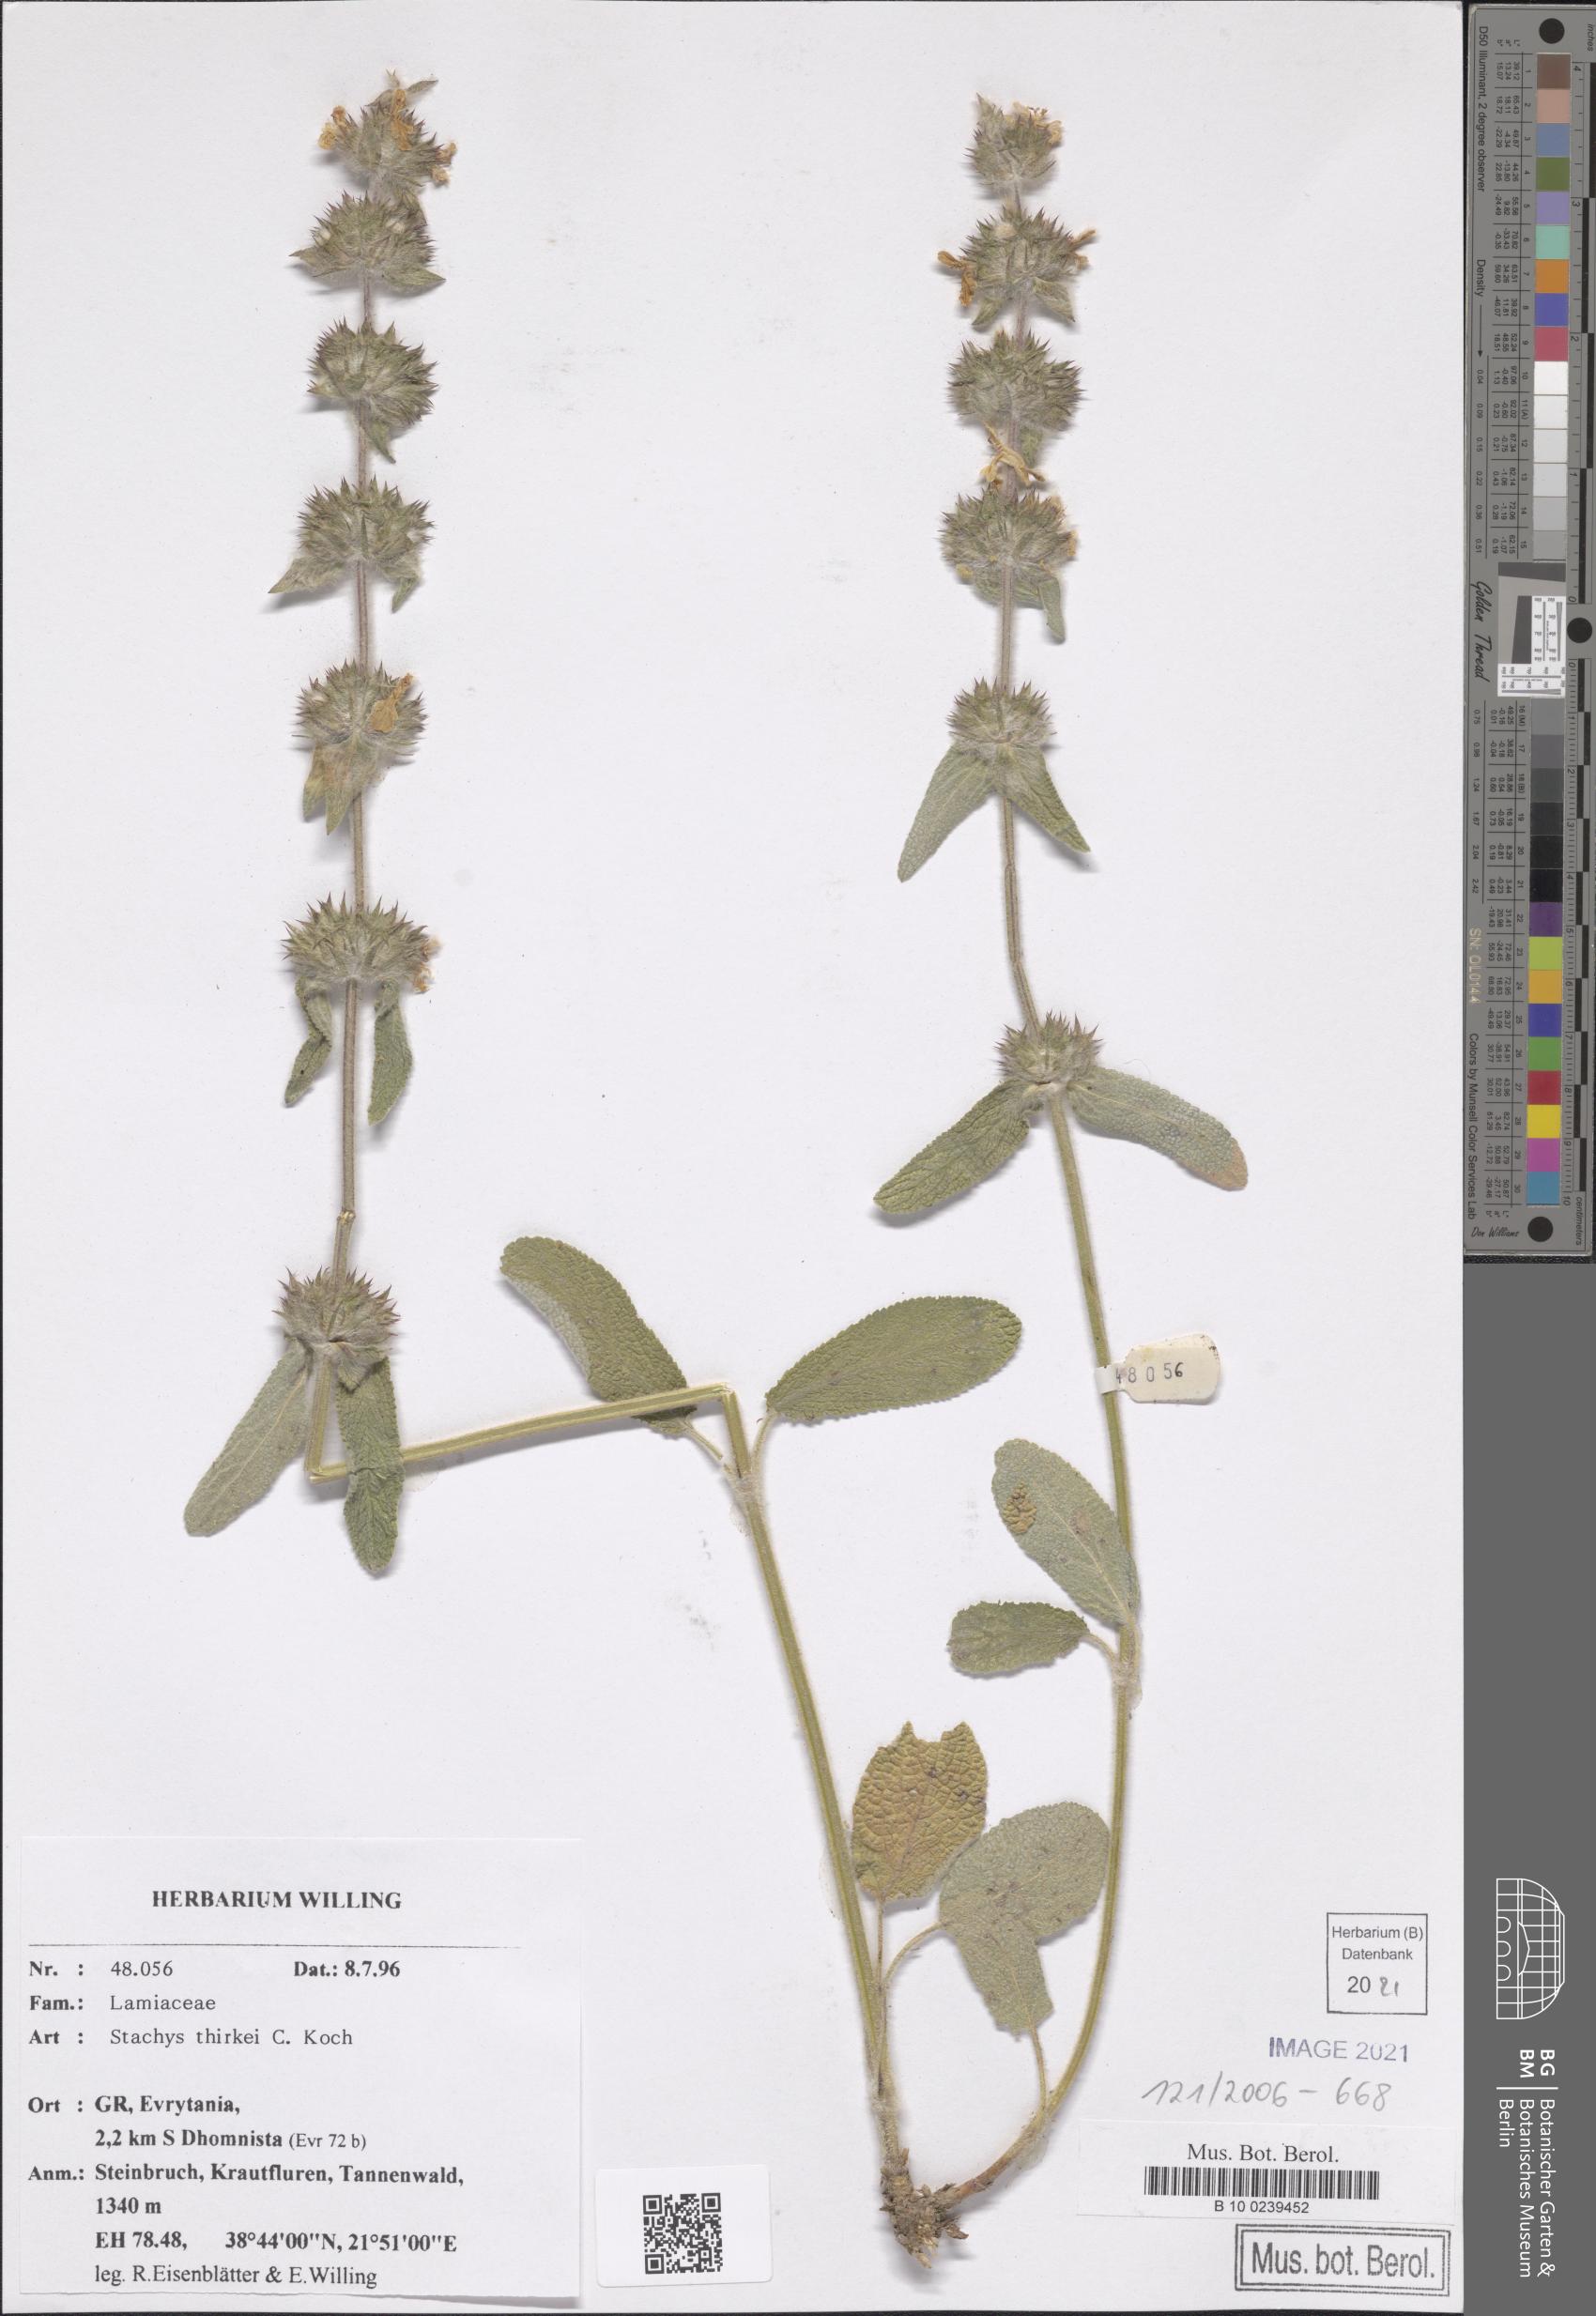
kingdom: Plantae
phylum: Tracheophyta
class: Magnoliopsida
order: Lamiales
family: Lamiaceae
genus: Stachys
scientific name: Stachys thirkei
